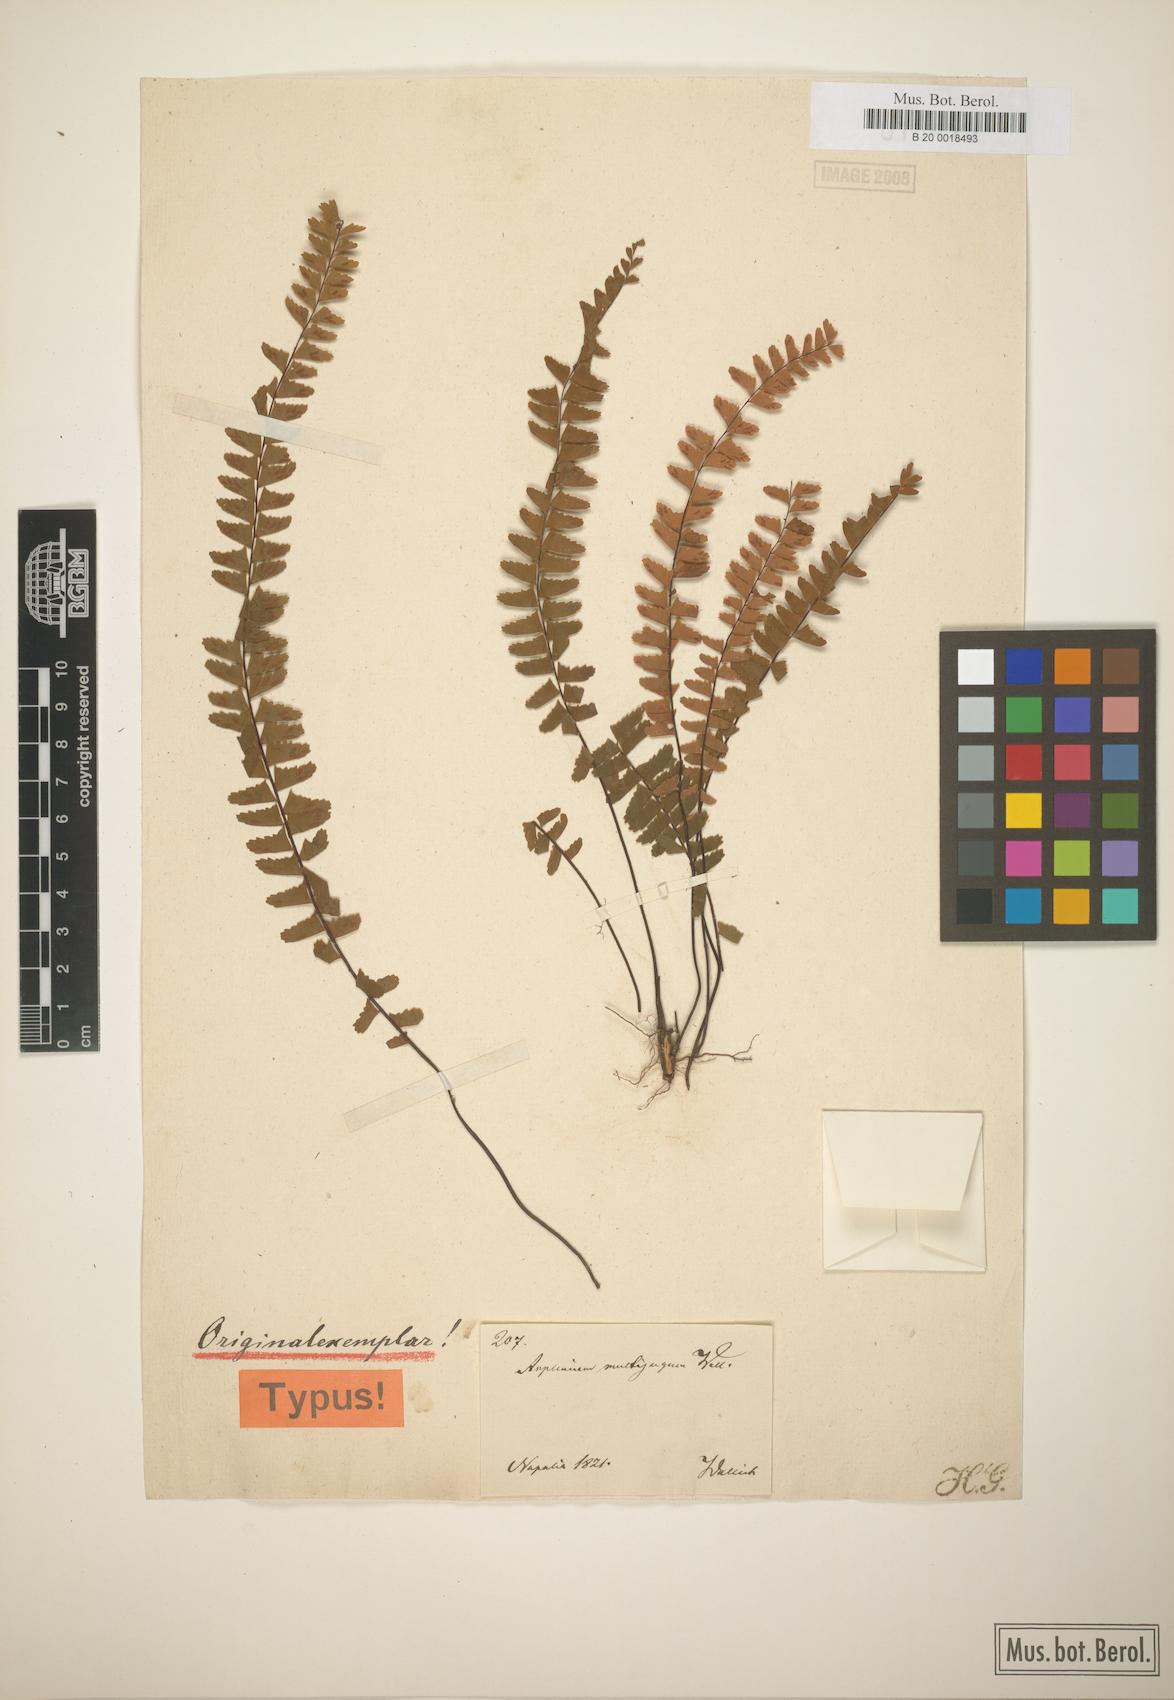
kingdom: Plantae
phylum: Tracheophyta
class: Polypodiopsida
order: Polypodiales
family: Aspleniaceae
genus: Asplenium
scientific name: Asplenium normale
